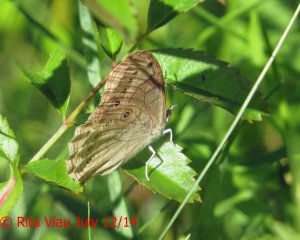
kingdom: Animalia
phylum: Arthropoda
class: Insecta
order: Lepidoptera
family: Nymphalidae
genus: Lethe
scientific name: Lethe eurydice
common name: Eyed Brown
